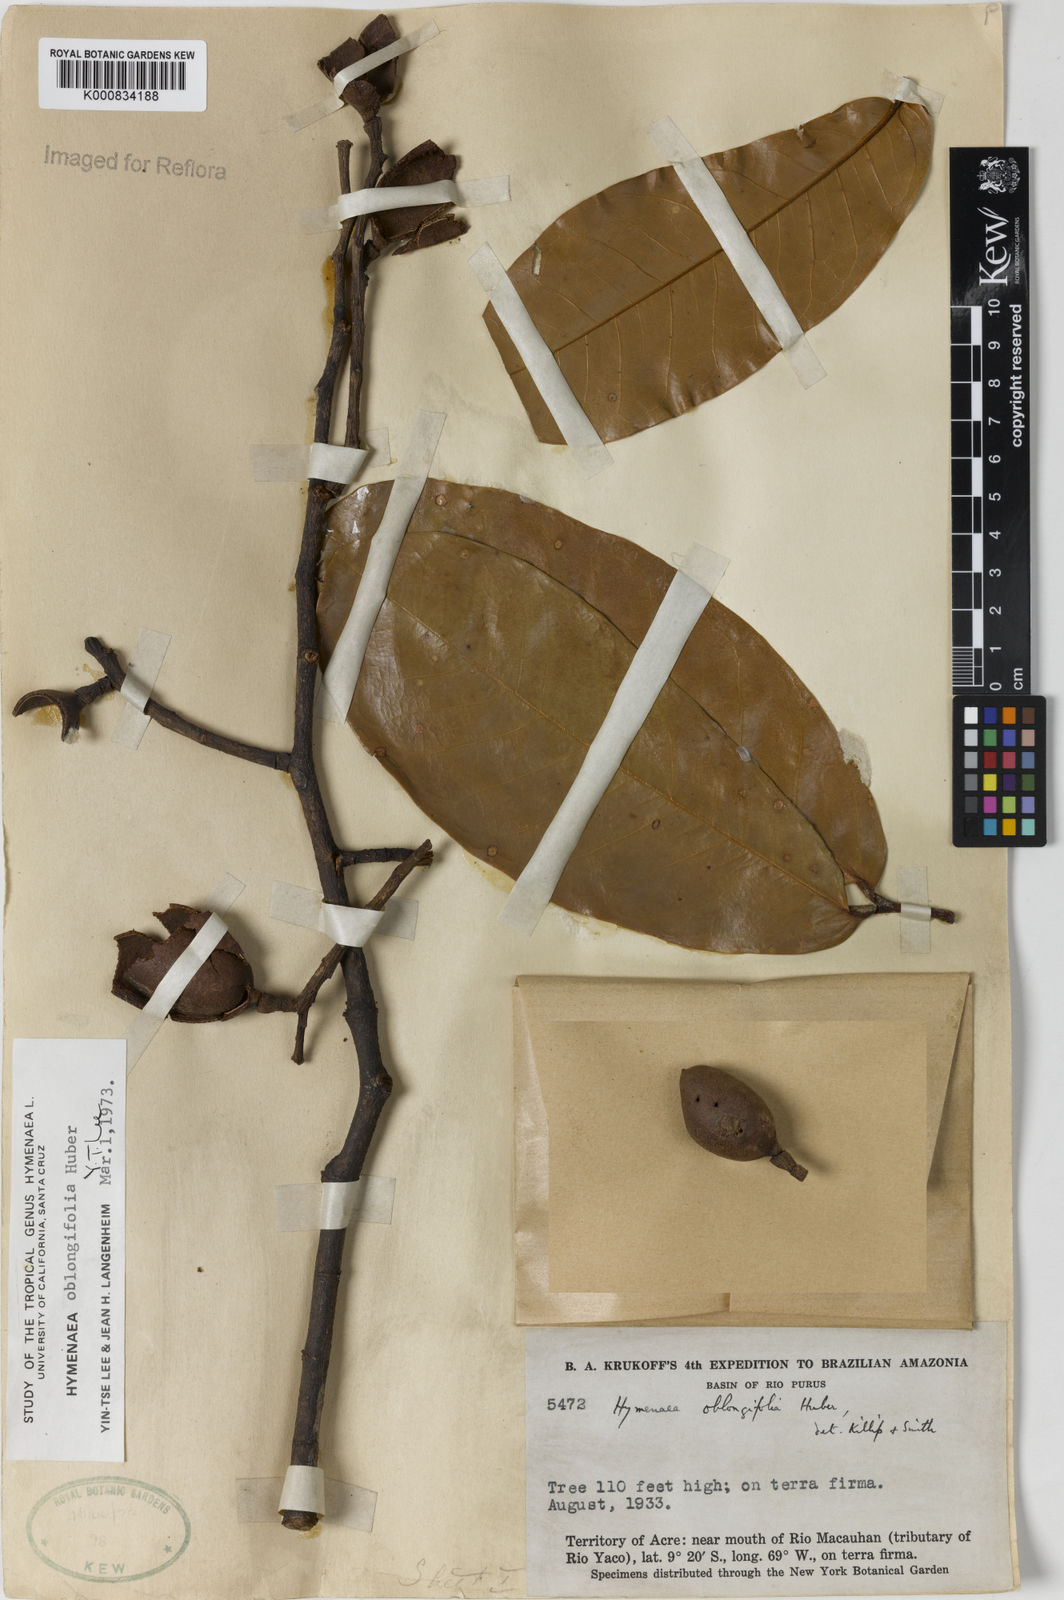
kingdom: Plantae
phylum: Tracheophyta
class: Magnoliopsida
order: Fabales
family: Fabaceae
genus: Hymenaea
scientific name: Hymenaea oblongifolia
